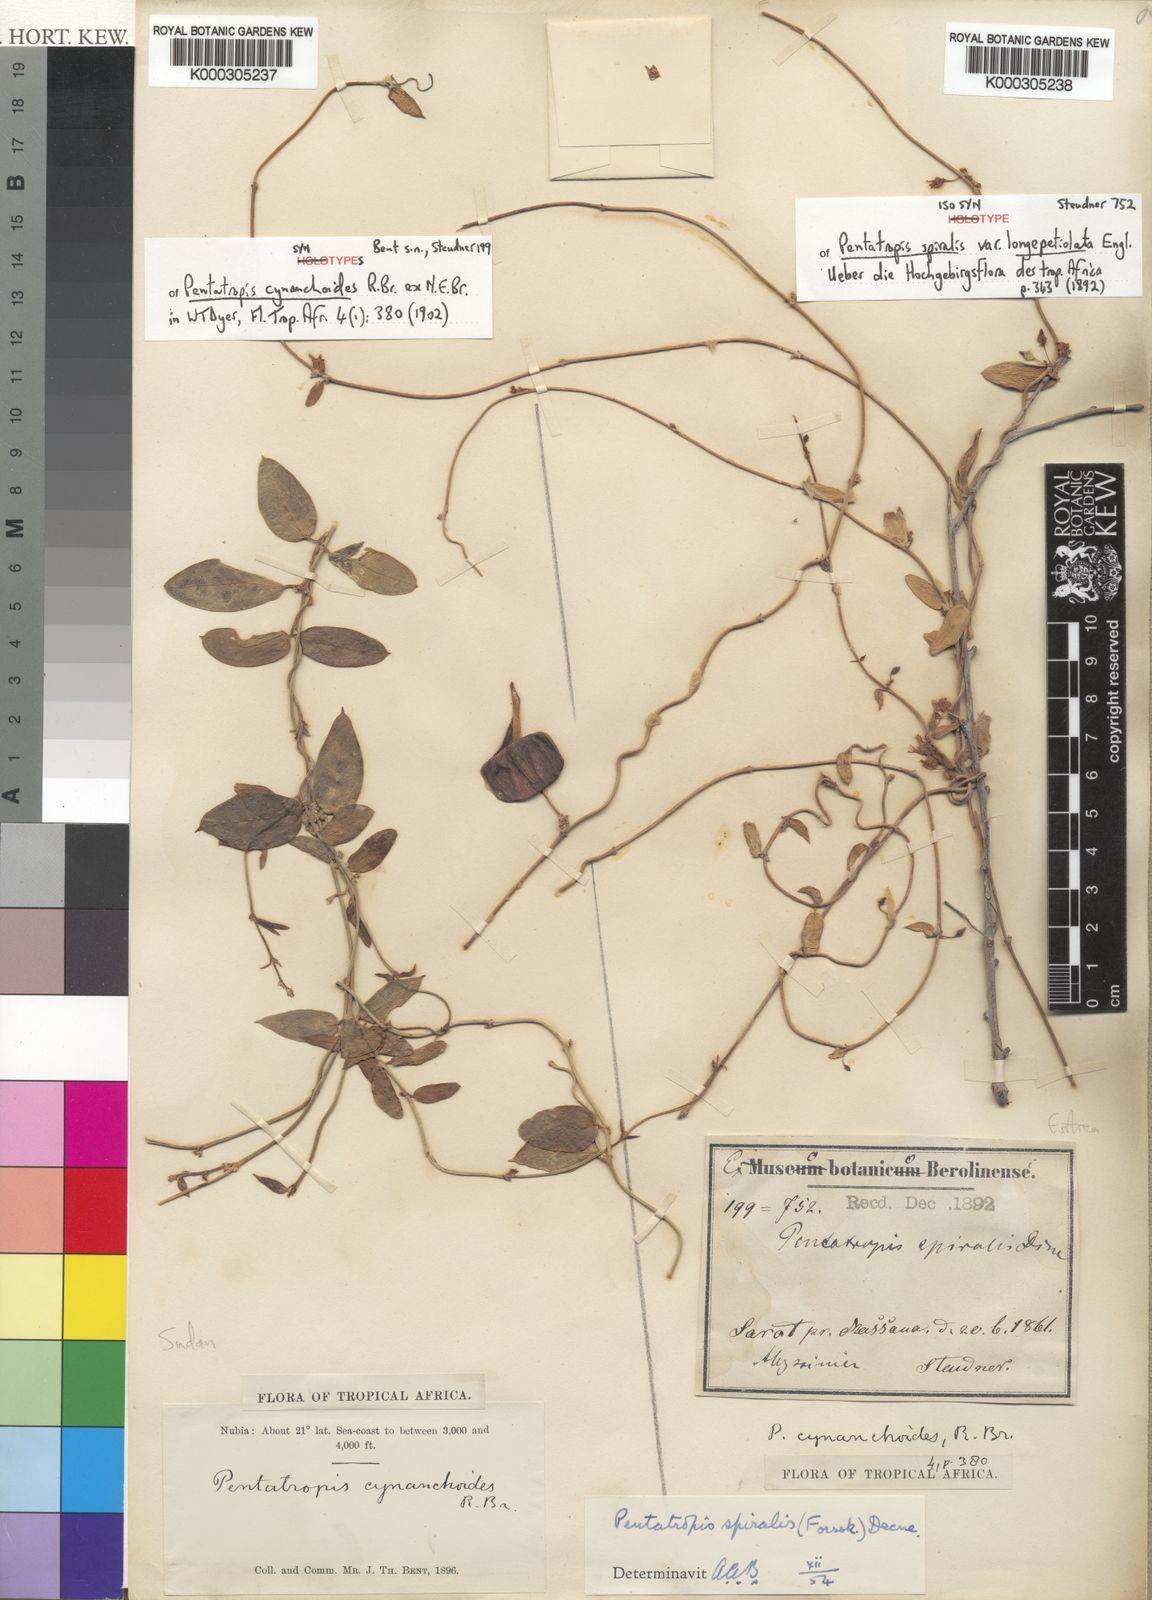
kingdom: Plantae
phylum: Tracheophyta
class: Magnoliopsida
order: Gentianales
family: Apocynaceae
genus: Pentatropis
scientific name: Pentatropis nivalis
